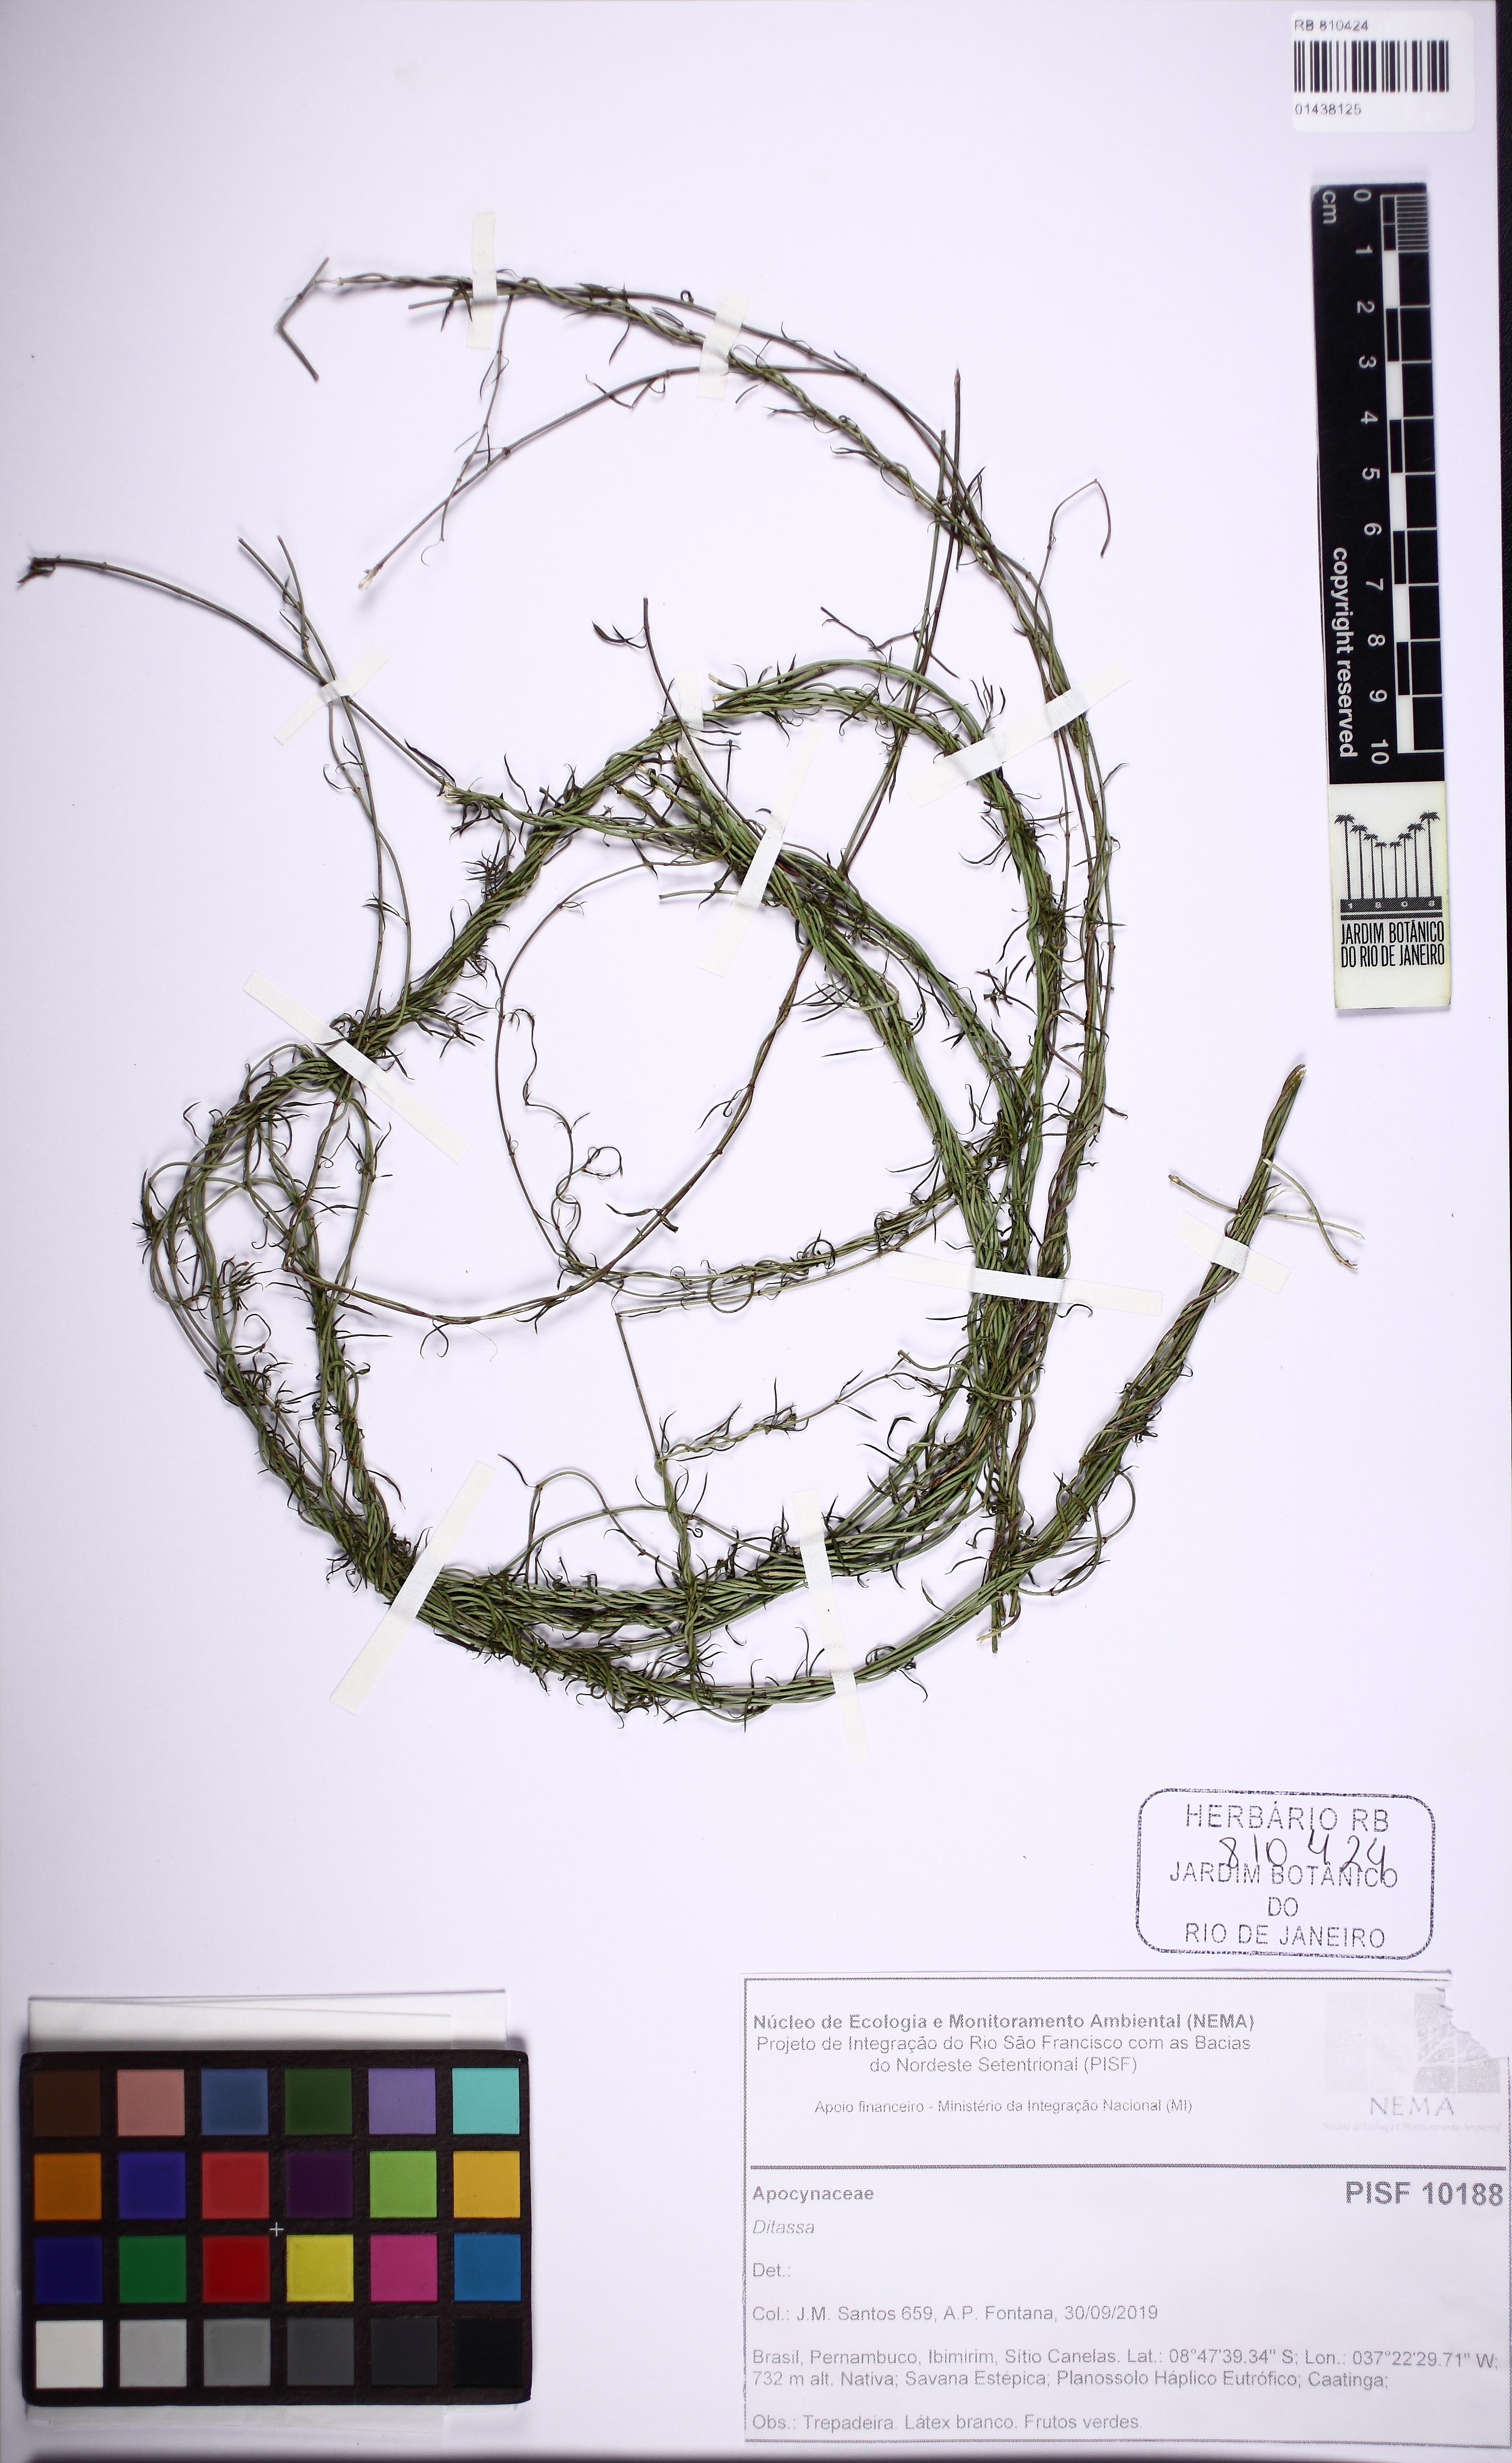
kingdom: Plantae
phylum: Tracheophyta
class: Magnoliopsida
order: Gentianales
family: Apocynaceae
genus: Ditassa
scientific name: Ditassa
